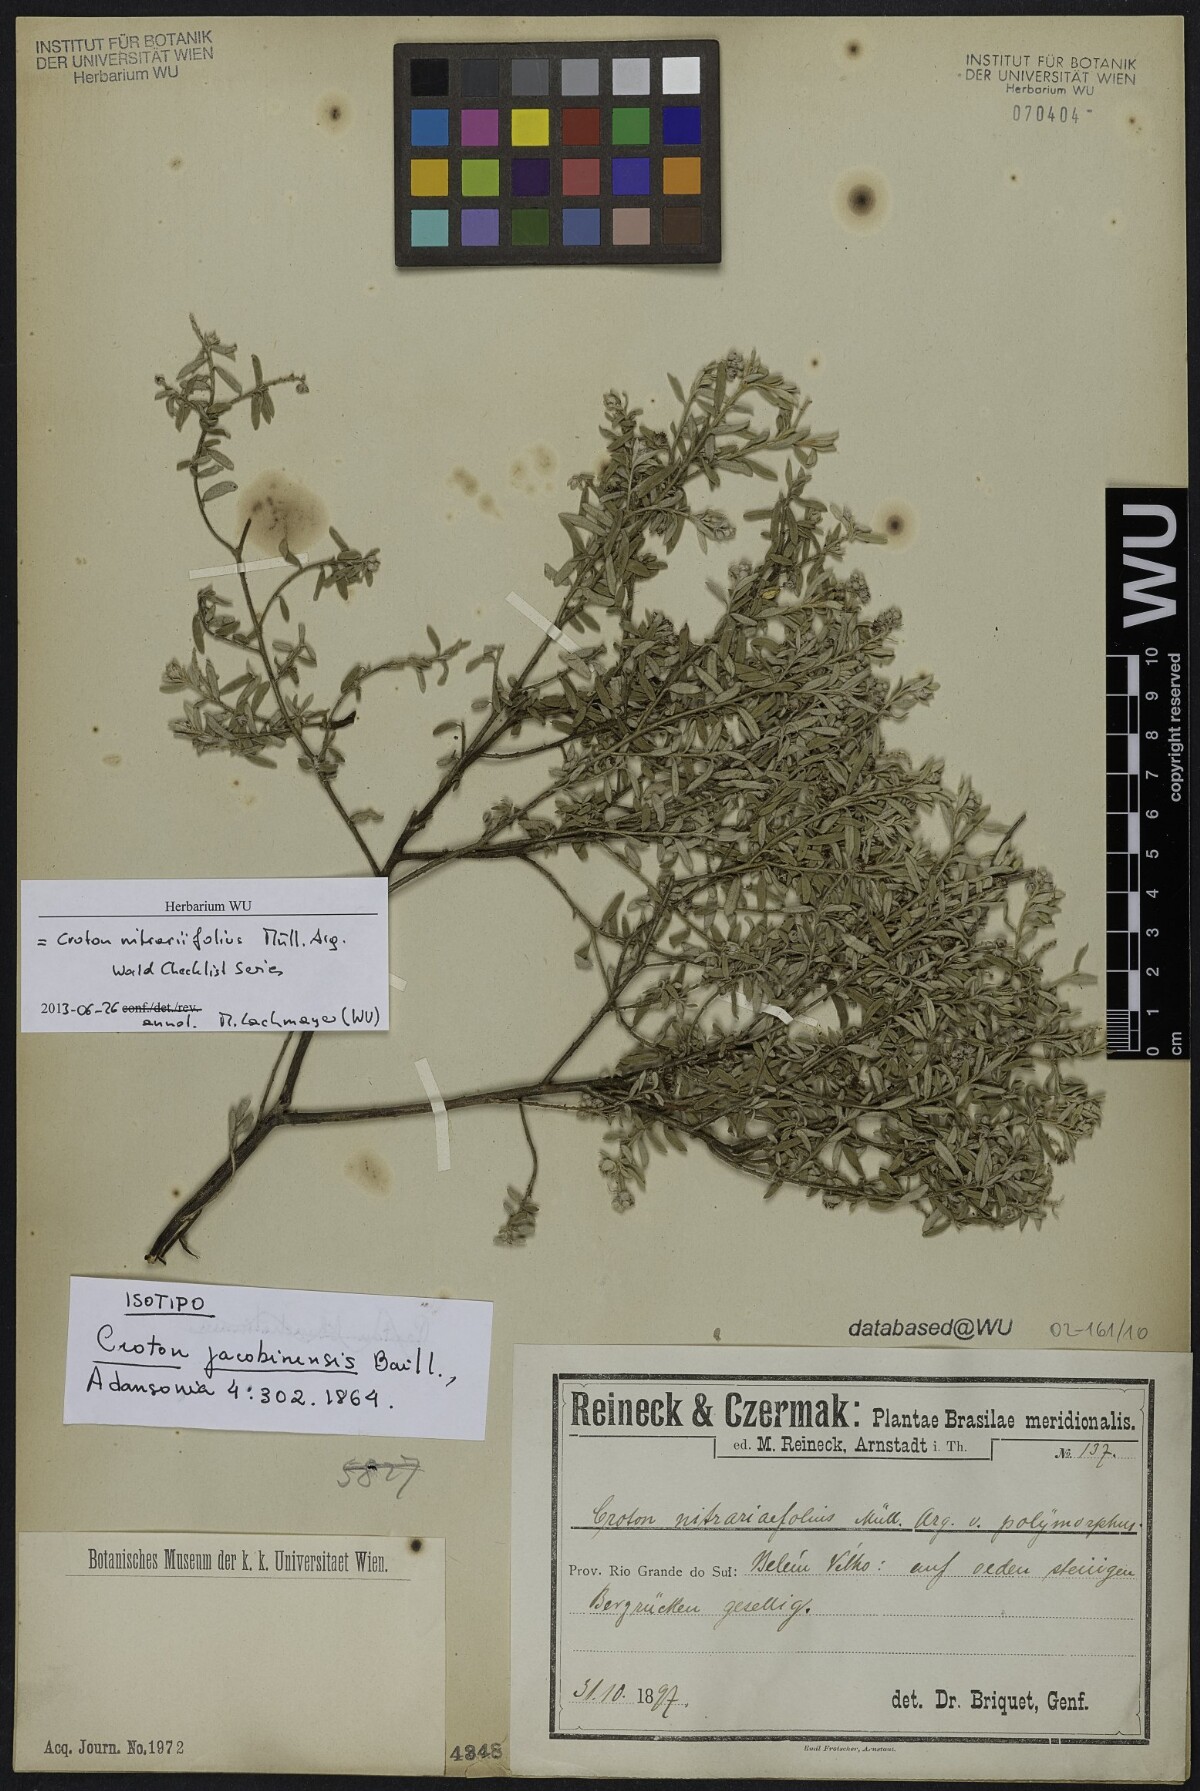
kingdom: Plantae
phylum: Tracheophyta
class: Magnoliopsida
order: Malpighiales
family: Euphorbiaceae
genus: Croton
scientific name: Croton nitrariaefolius
